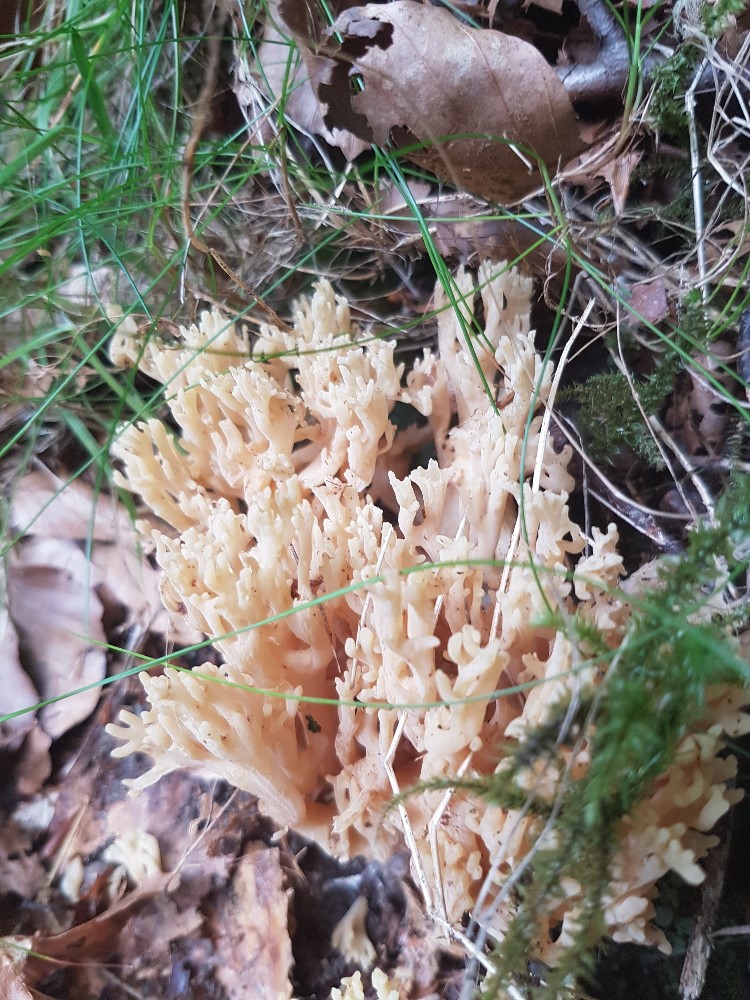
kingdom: Fungi
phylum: Basidiomycota
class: Agaricomycetes
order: Gomphales
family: Gomphaceae
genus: Ramaria
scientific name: Ramaria
